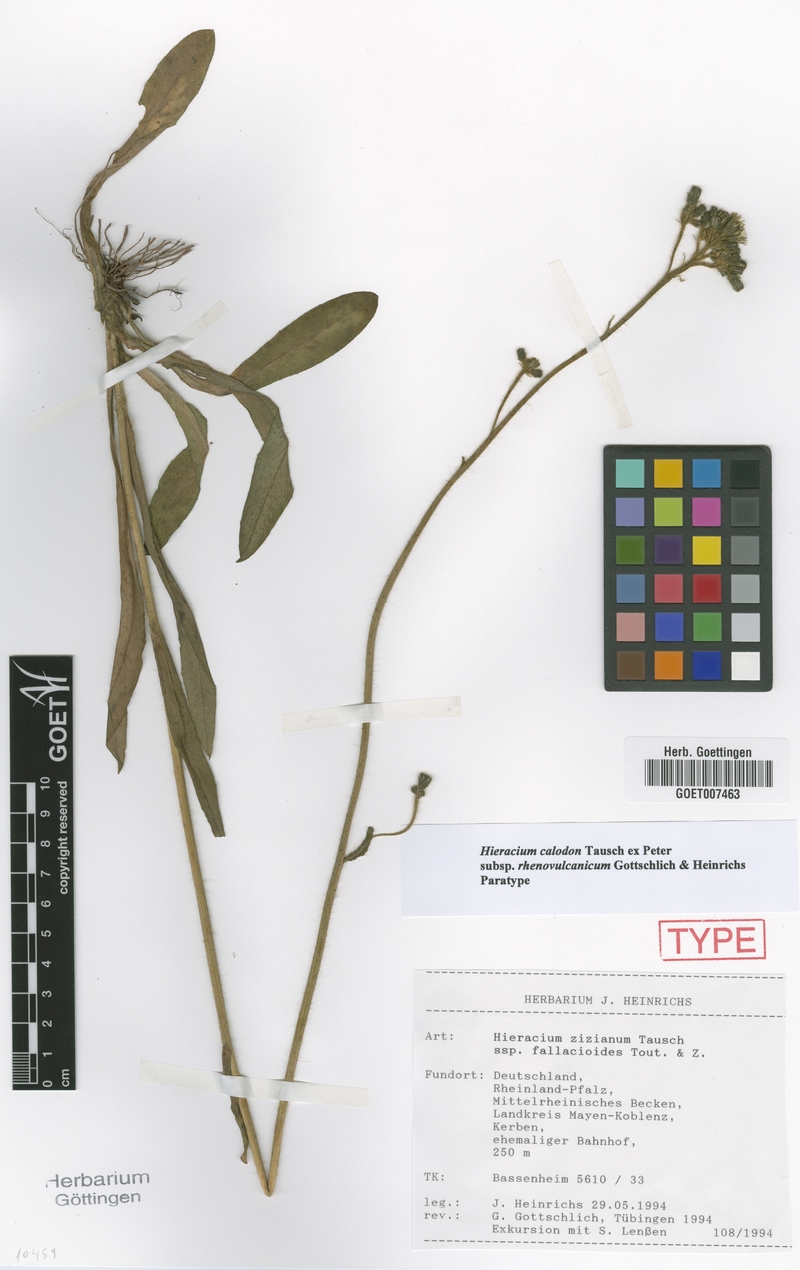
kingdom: Plantae
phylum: Tracheophyta
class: Magnoliopsida
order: Asterales
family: Asteraceae
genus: Pilosella
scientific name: Pilosella calodon
